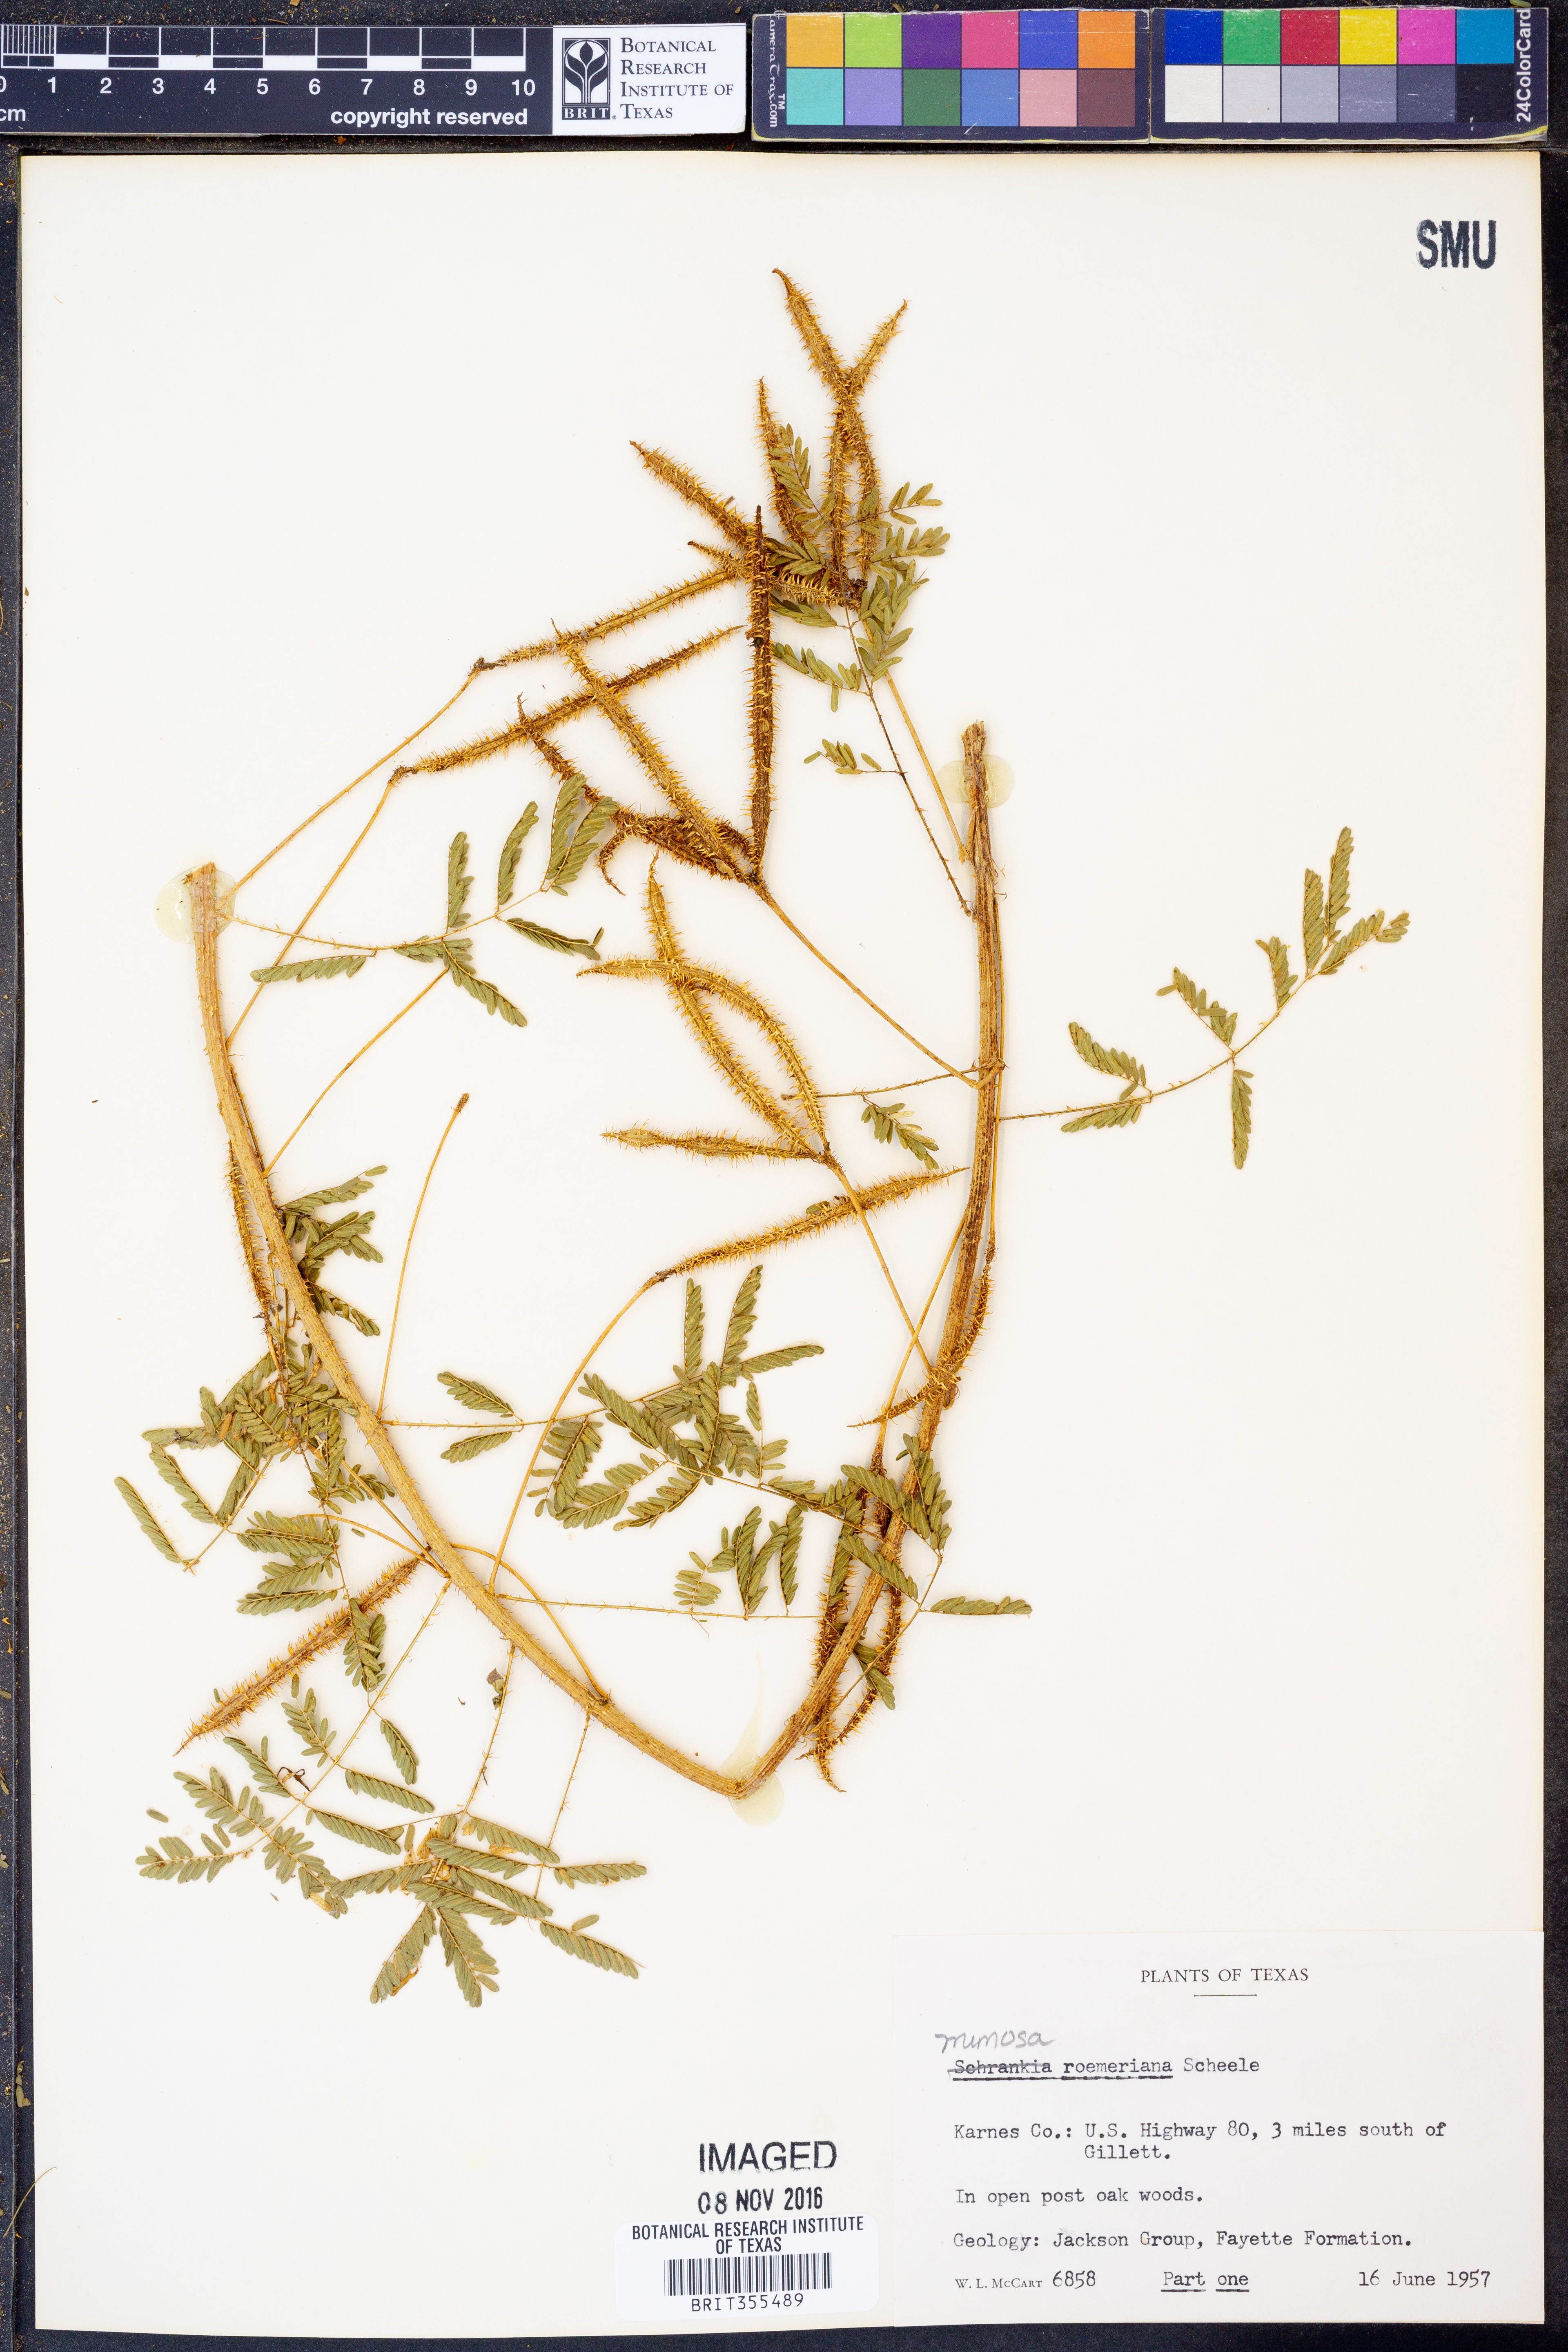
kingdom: Plantae
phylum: Tracheophyta
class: Magnoliopsida
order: Fabales
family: Fabaceae
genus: Mimosa
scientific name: Mimosa quadrivalvis
